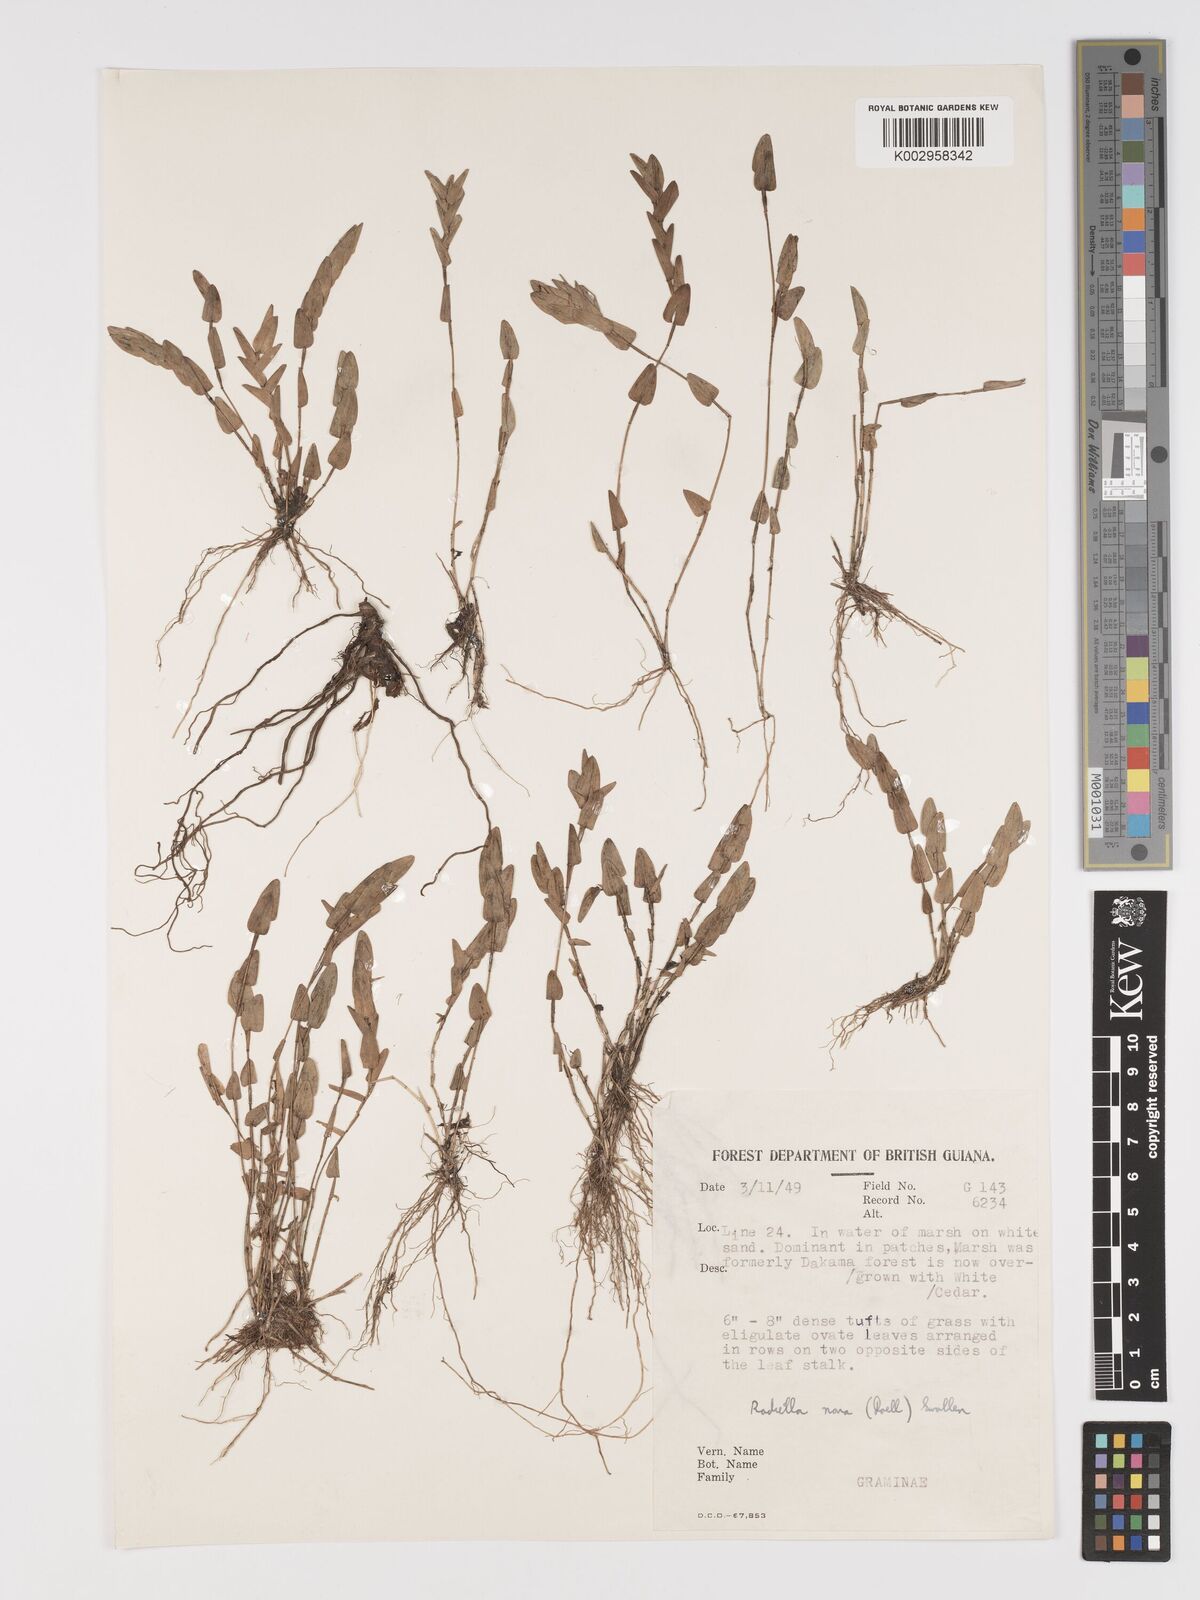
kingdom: Plantae
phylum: Tracheophyta
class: Liliopsida
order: Poales
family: Poaceae
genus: Raddiella
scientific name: Raddiella esenbeckii
